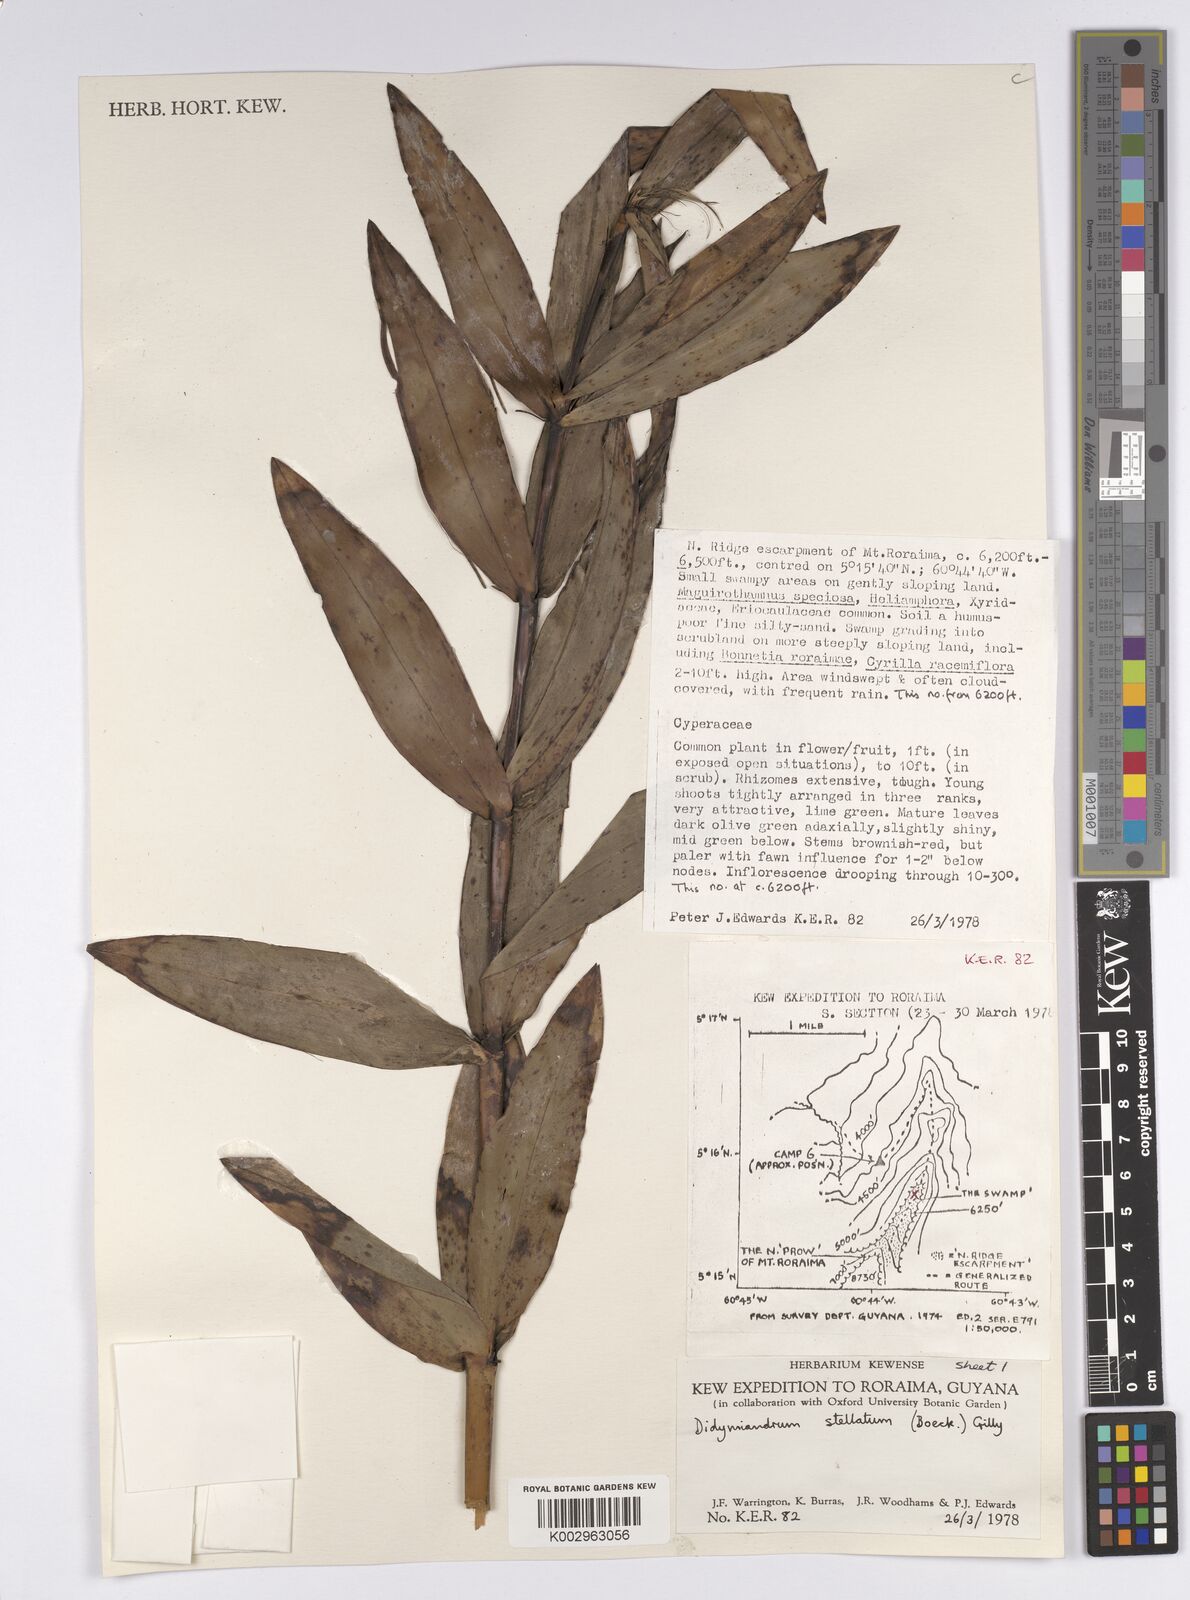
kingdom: Plantae
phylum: Tracheophyta
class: Liliopsida
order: Poales
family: Cyperaceae
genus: Didymiandrum
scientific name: Didymiandrum stellatum
